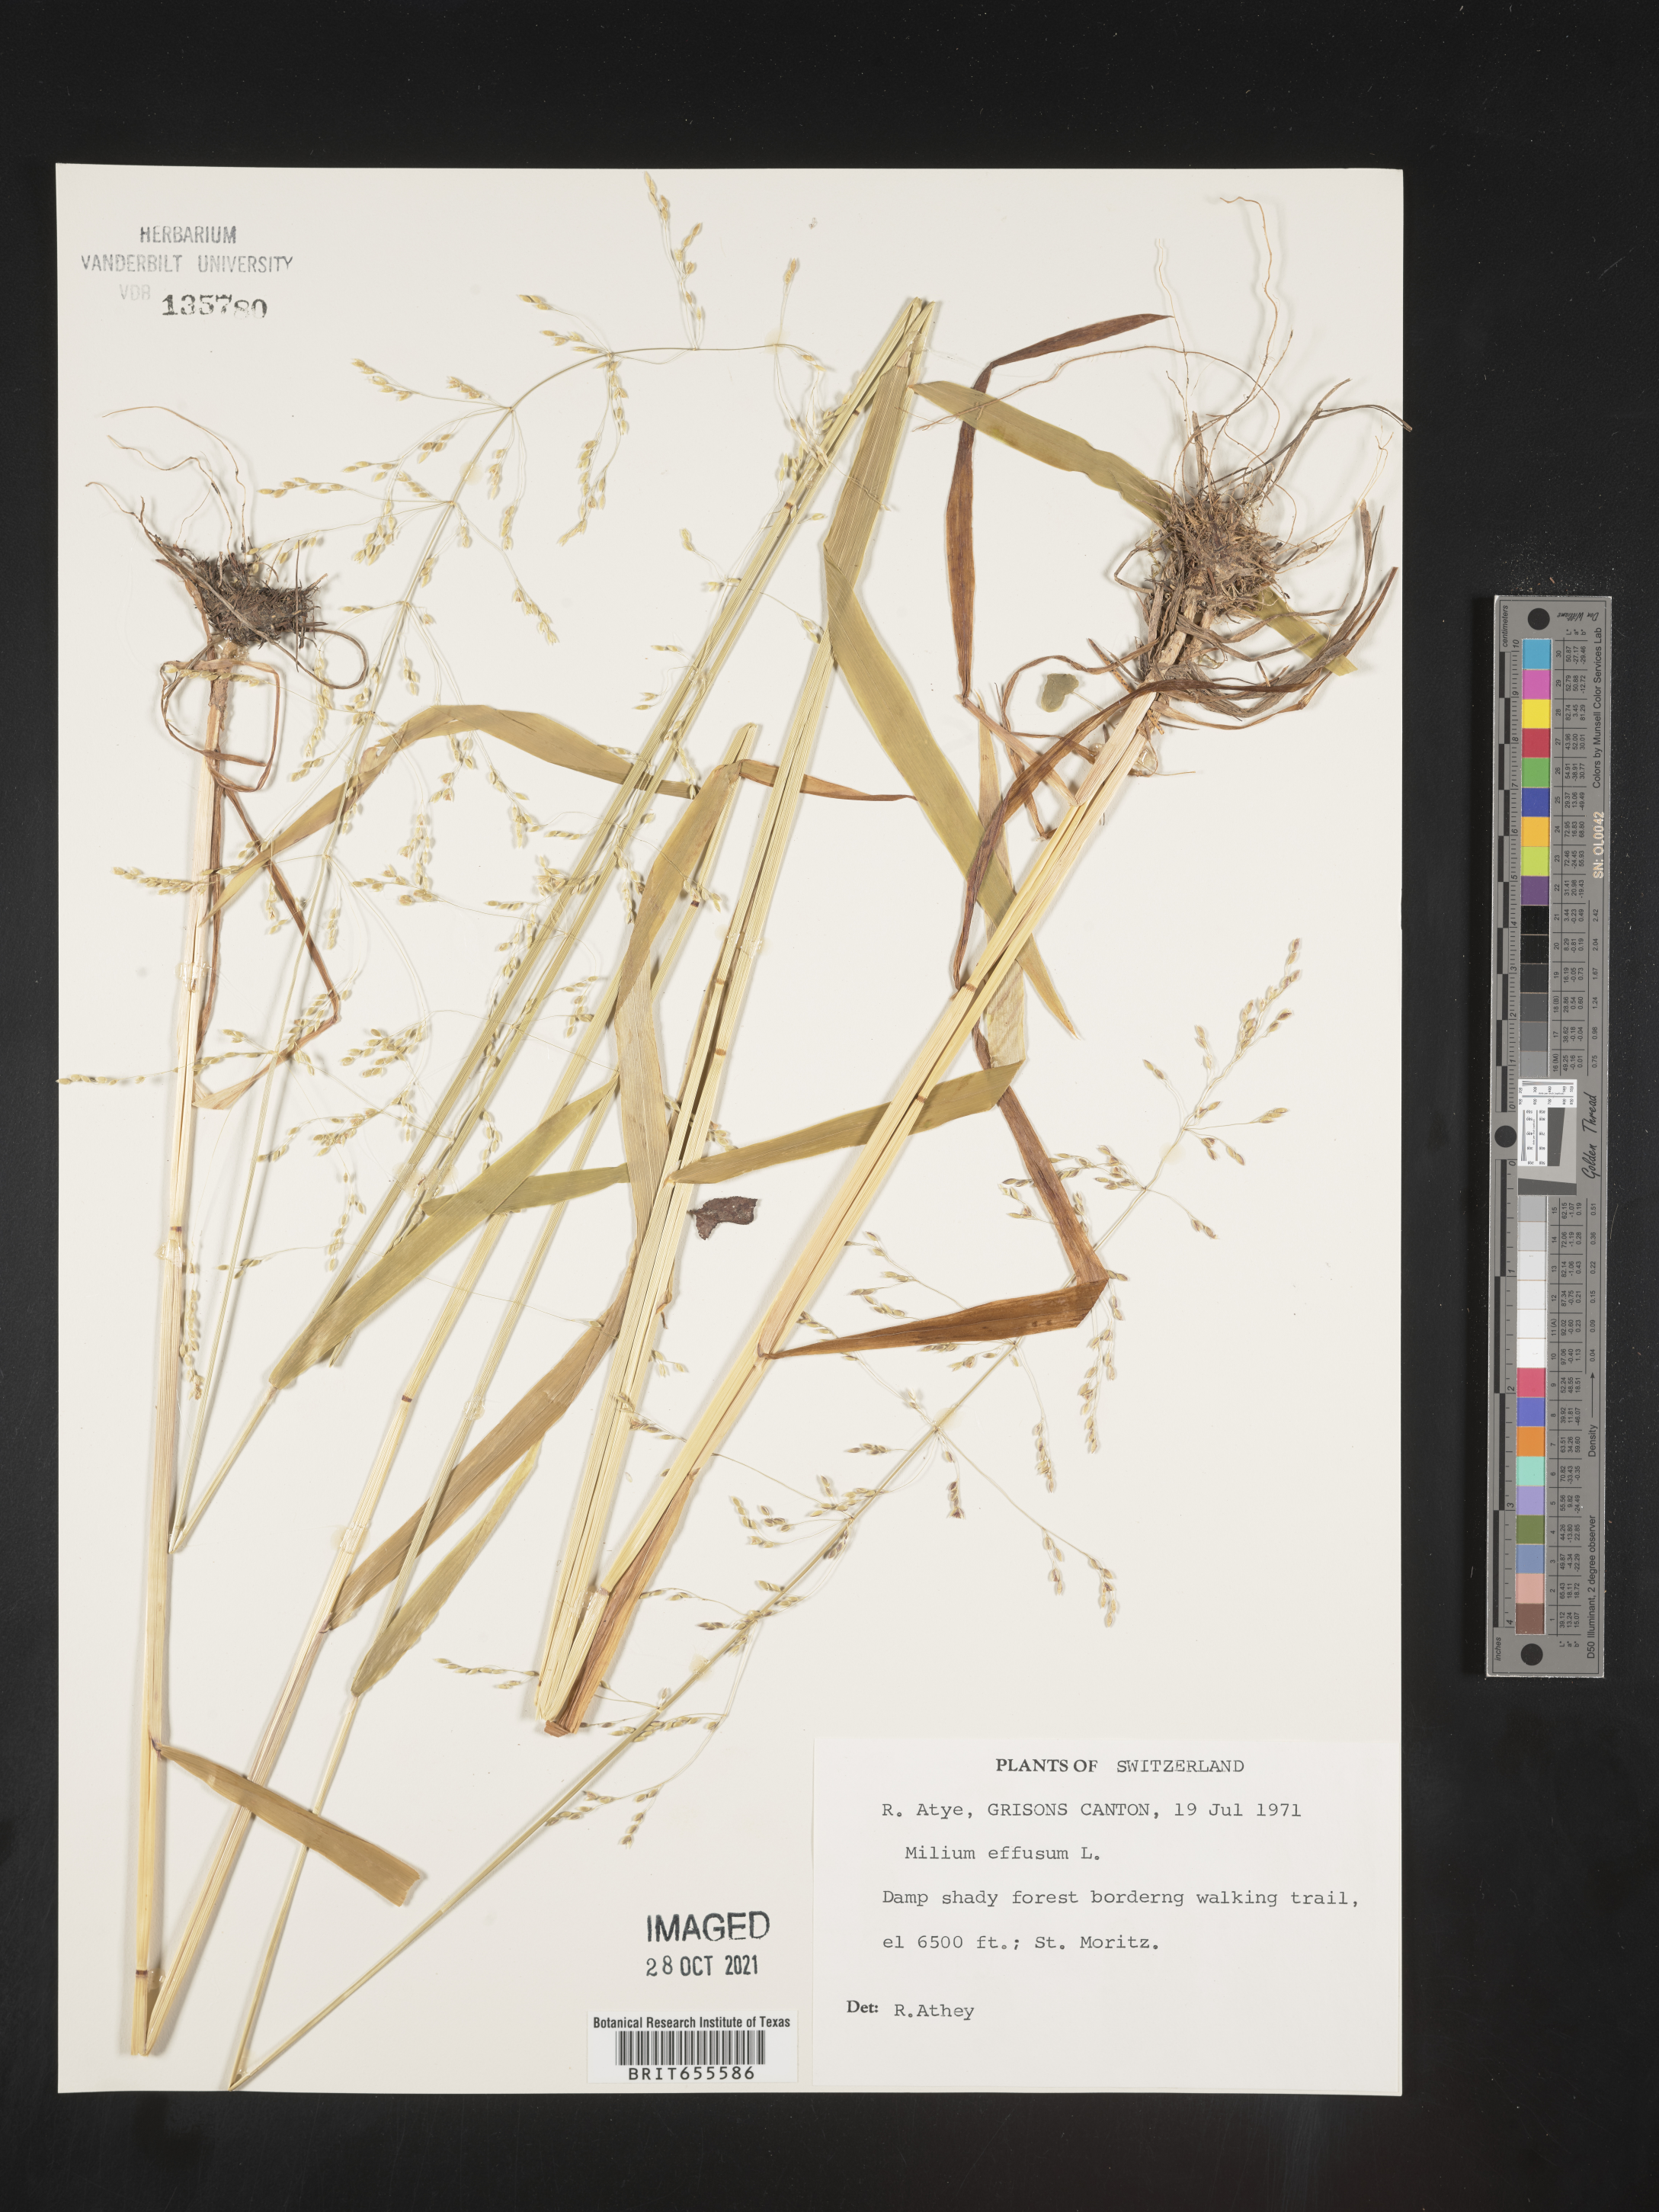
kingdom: Plantae
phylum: Tracheophyta
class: Liliopsida
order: Poales
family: Poaceae
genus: Milium
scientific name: Milium
